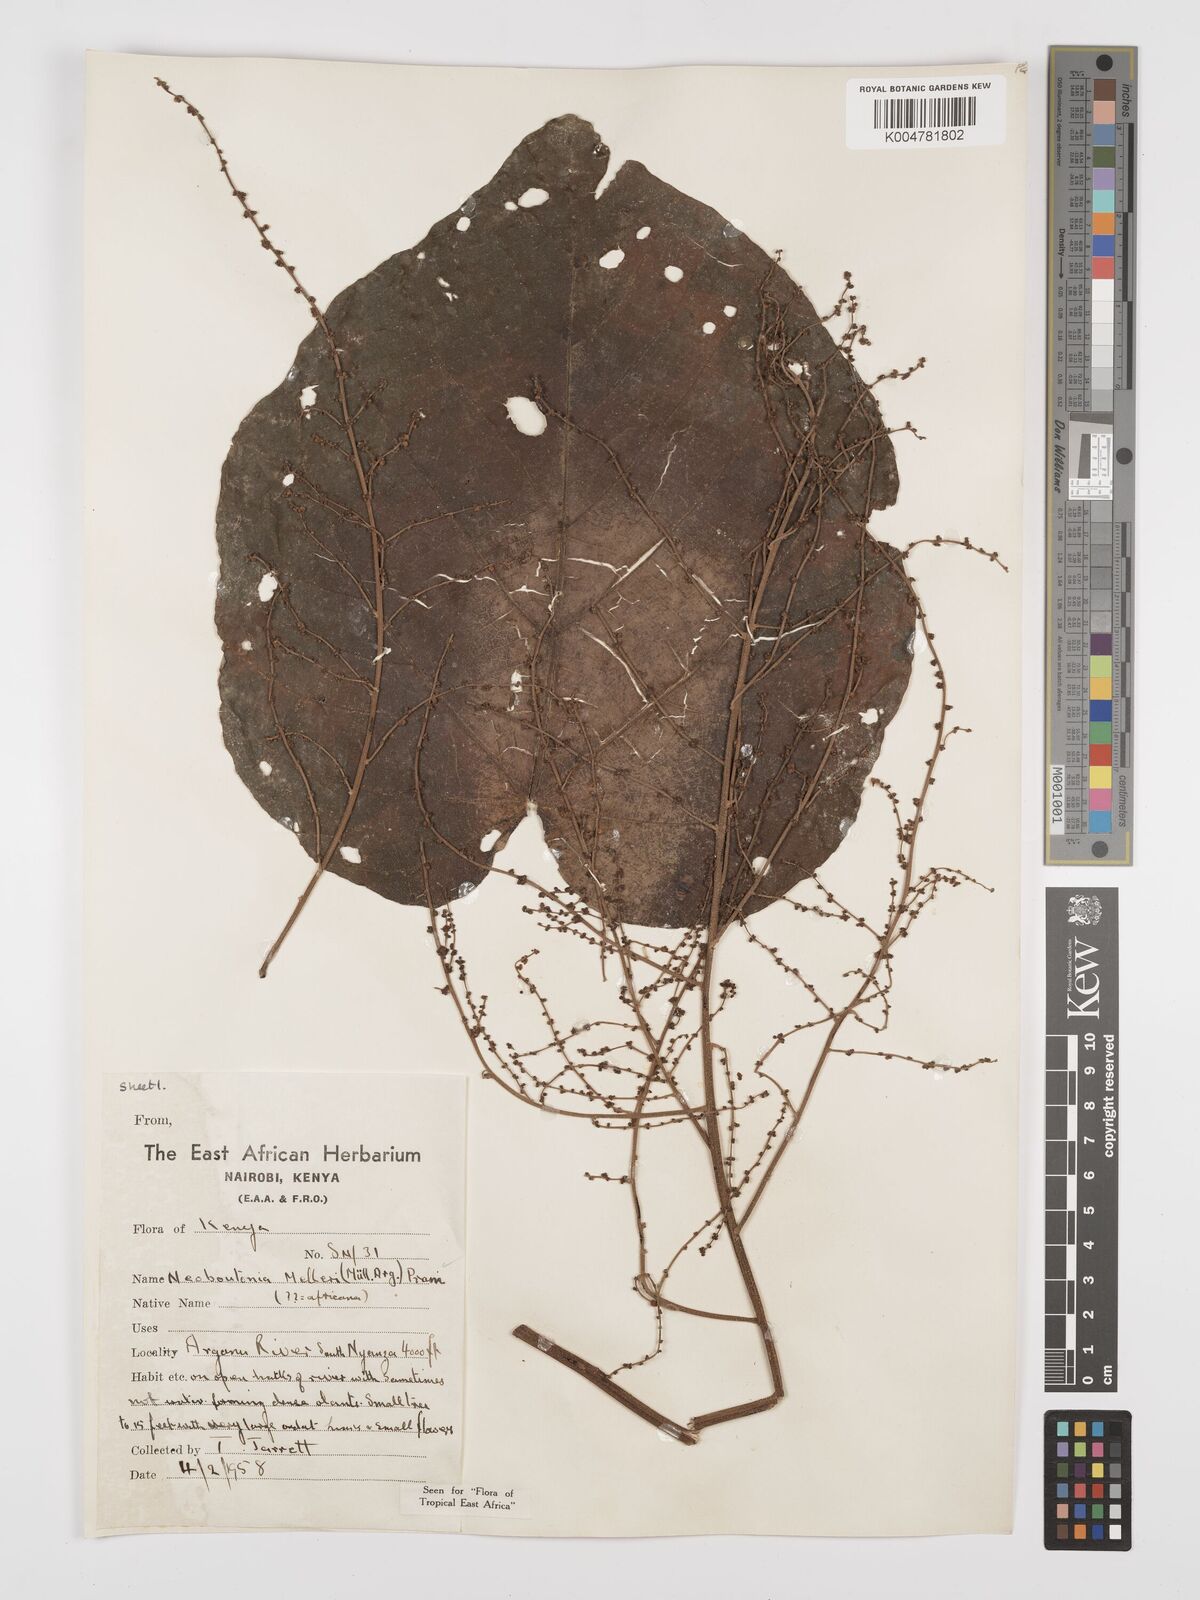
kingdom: Plantae
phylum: Tracheophyta
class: Magnoliopsida
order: Malpighiales
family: Euphorbiaceae
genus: Neoboutonia
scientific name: Neoboutonia melleri
